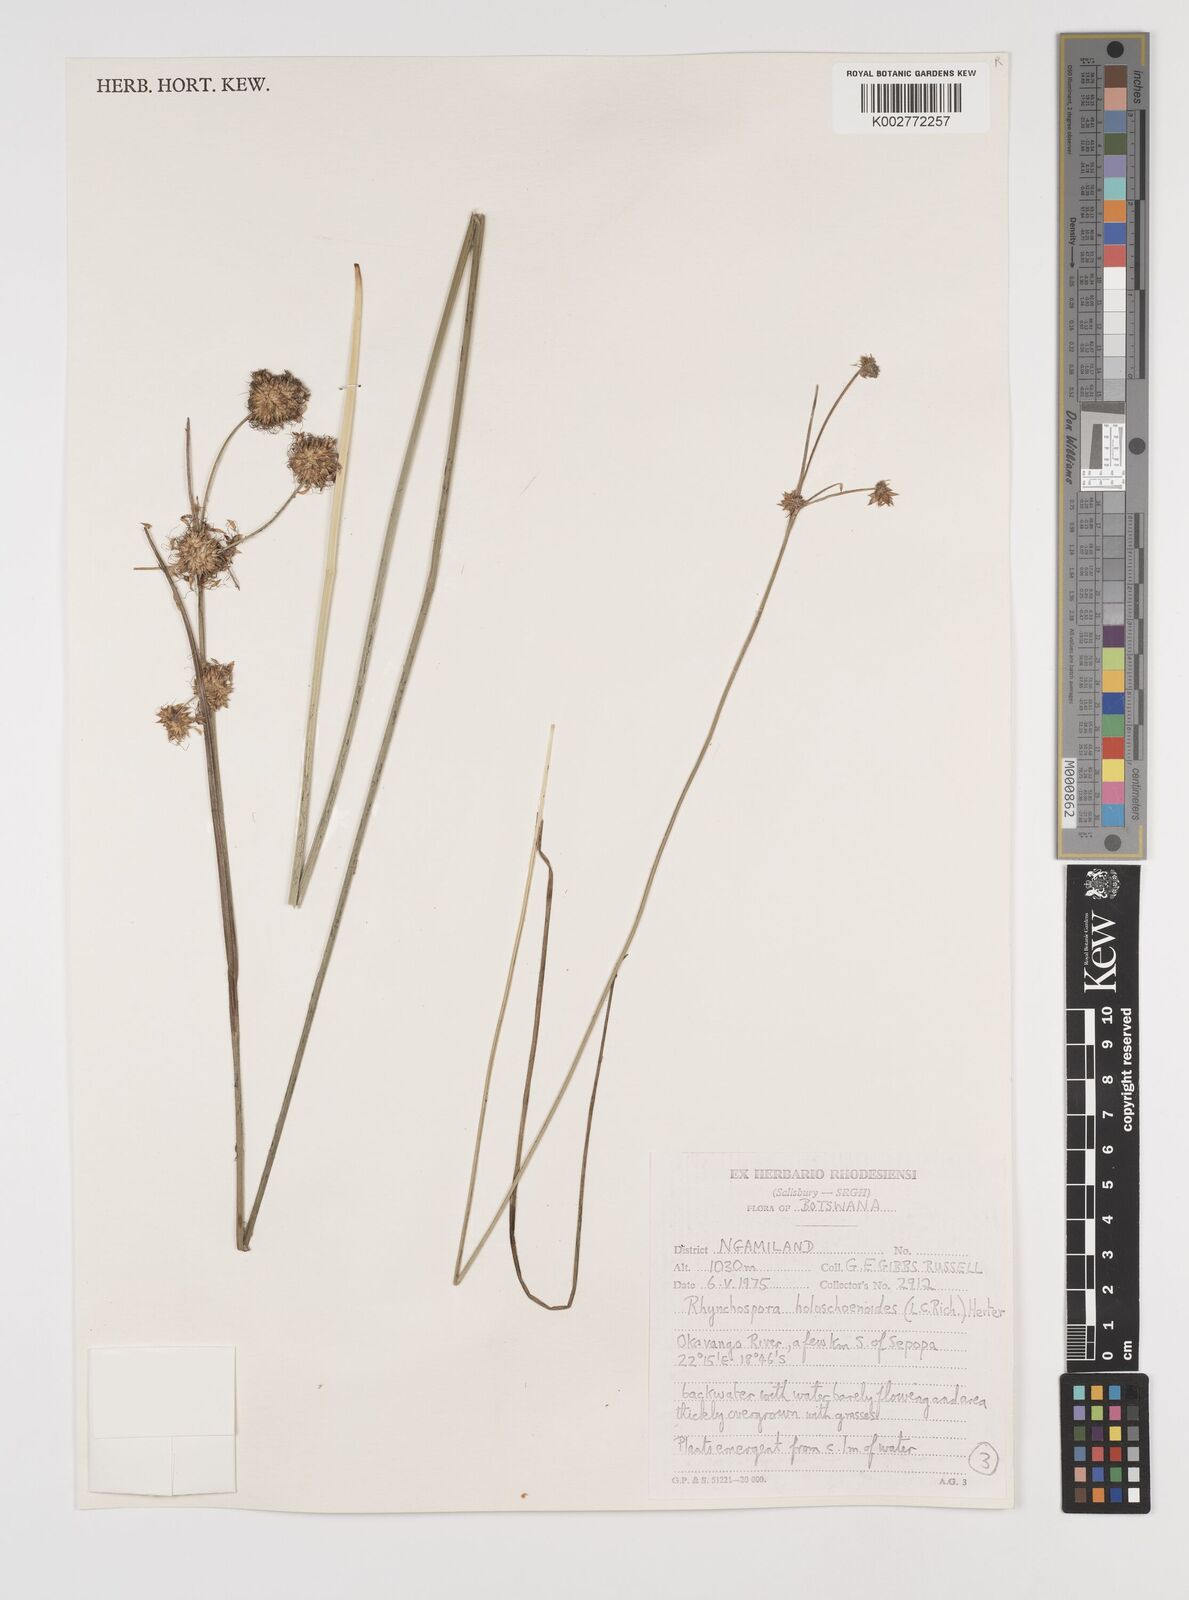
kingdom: Plantae
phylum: Tracheophyta
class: Liliopsida
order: Poales
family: Cyperaceae
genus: Rhynchospora
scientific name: Rhynchospora holoschoenoides
